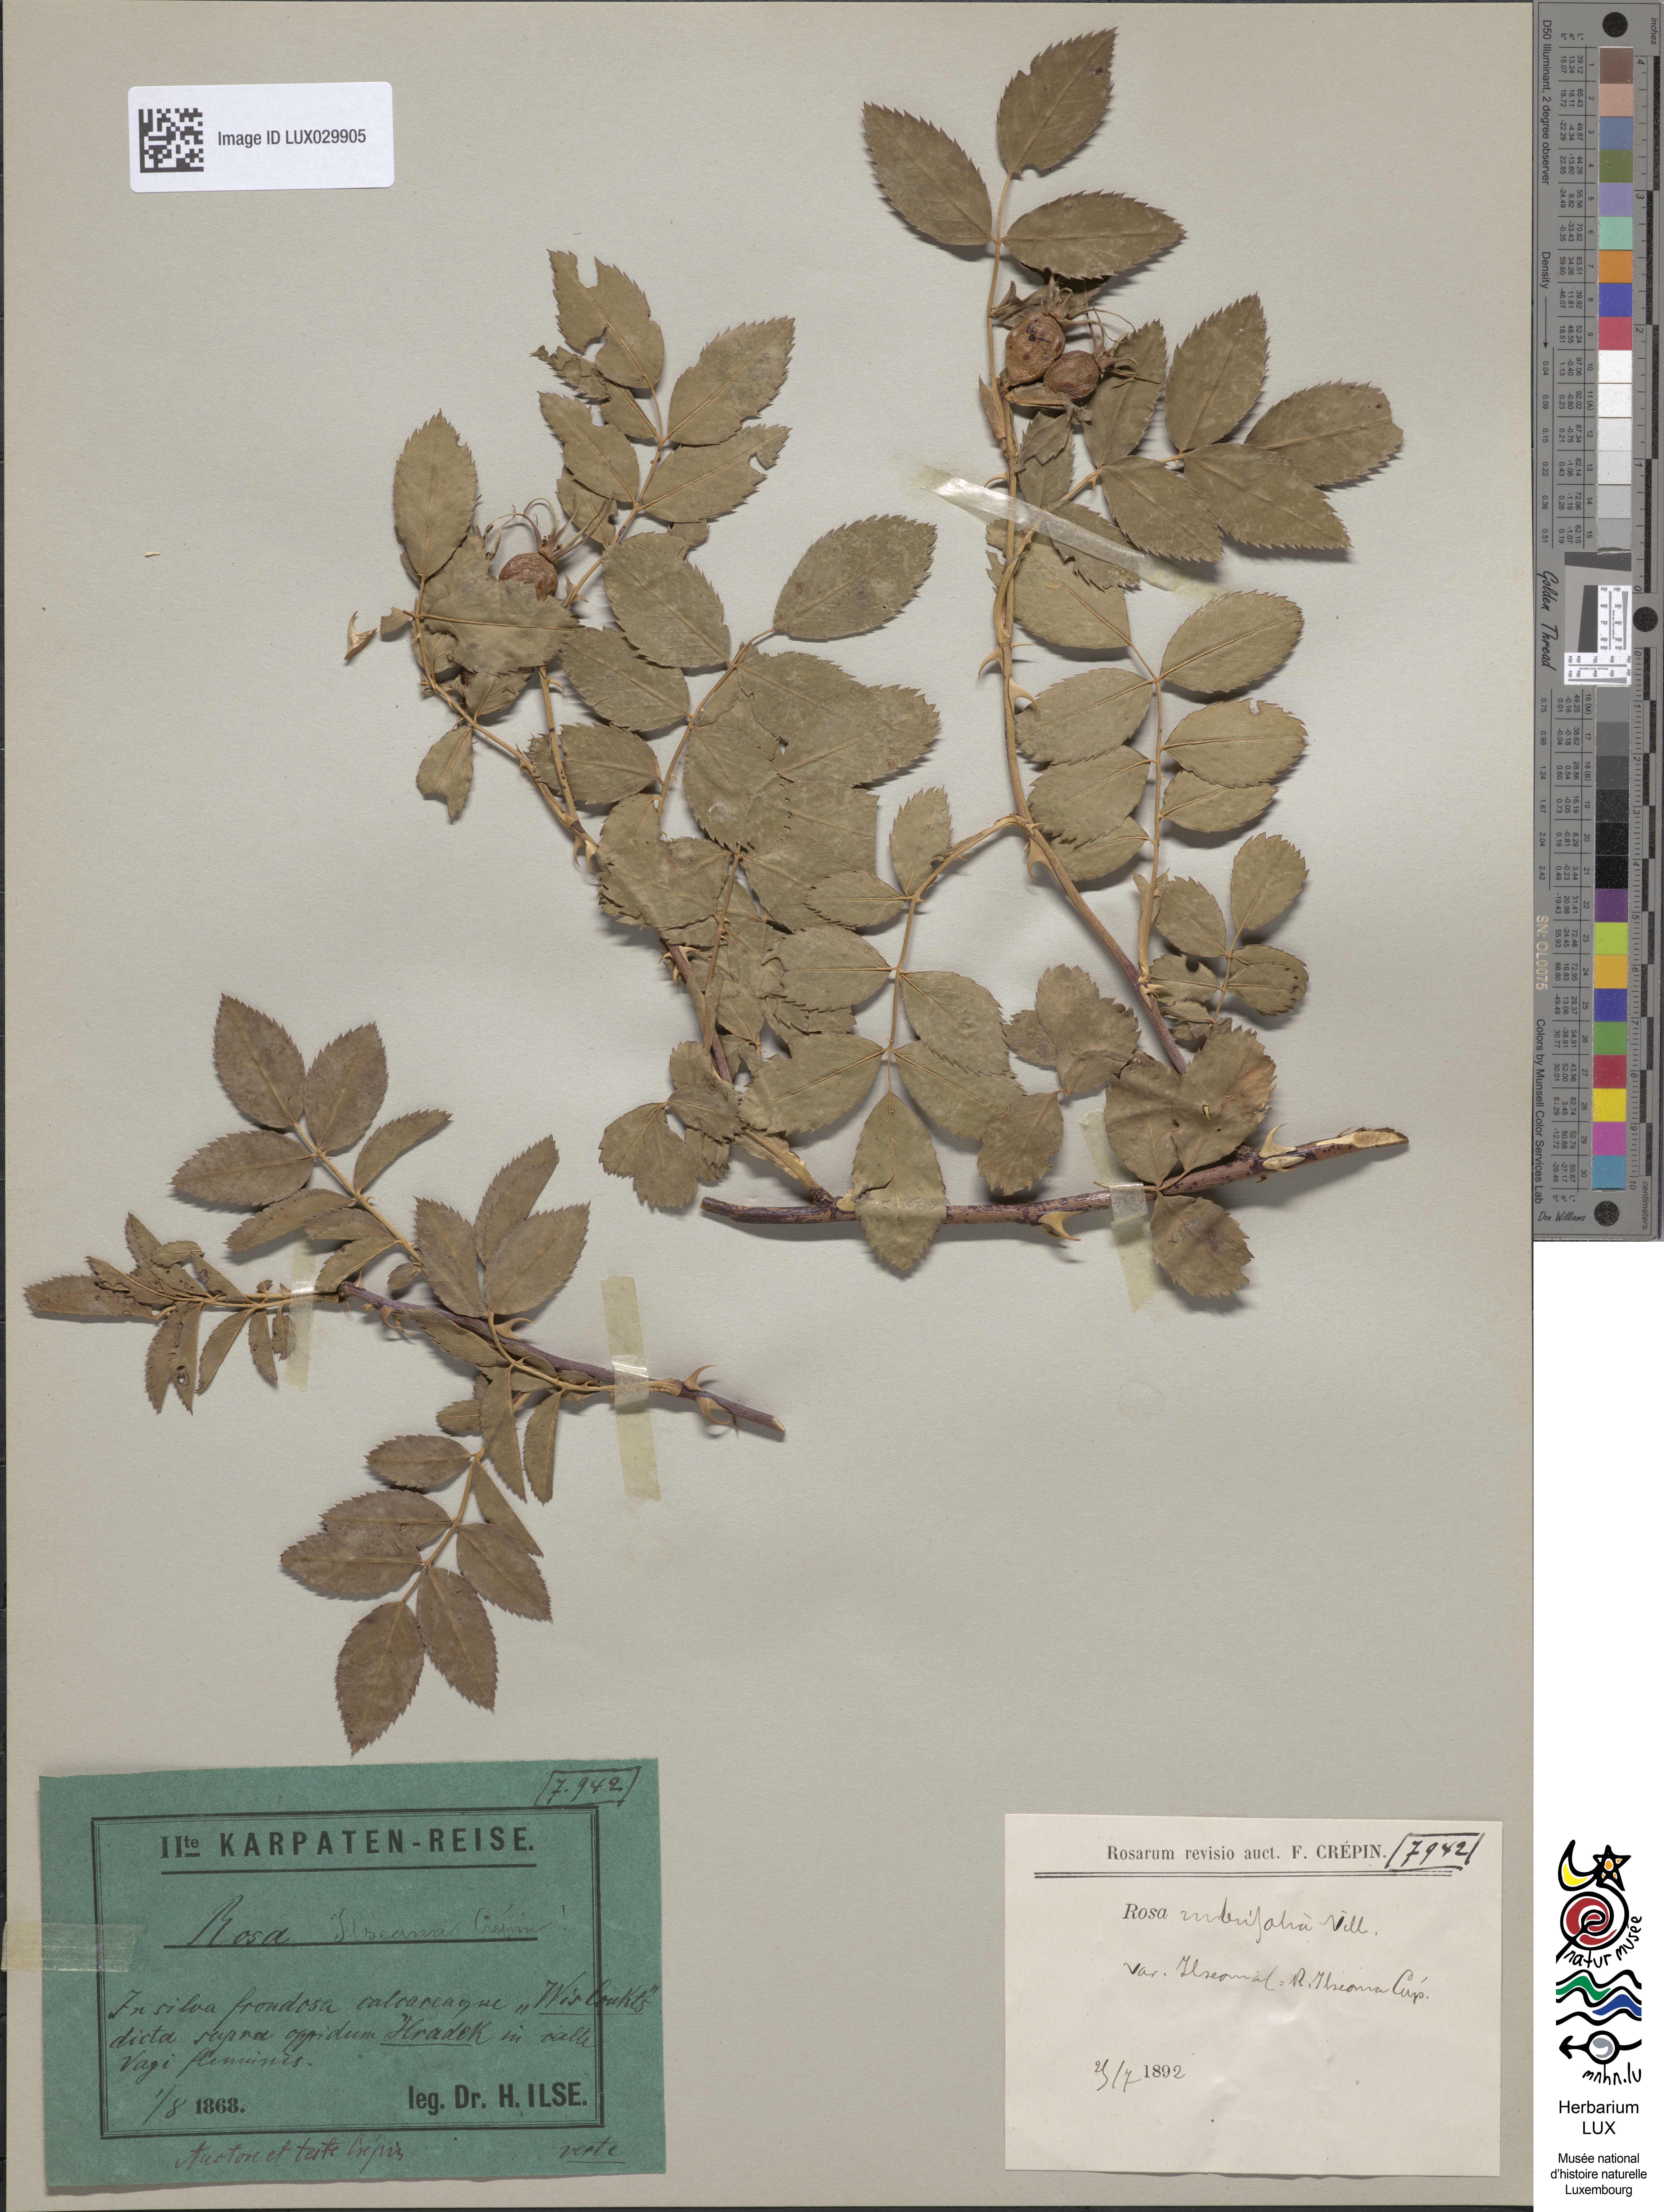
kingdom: Plantae
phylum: Tracheophyta
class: Magnoliopsida
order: Rosales
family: Rosaceae
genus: Rosa
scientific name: Rosa glauca
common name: Redleaf rose
